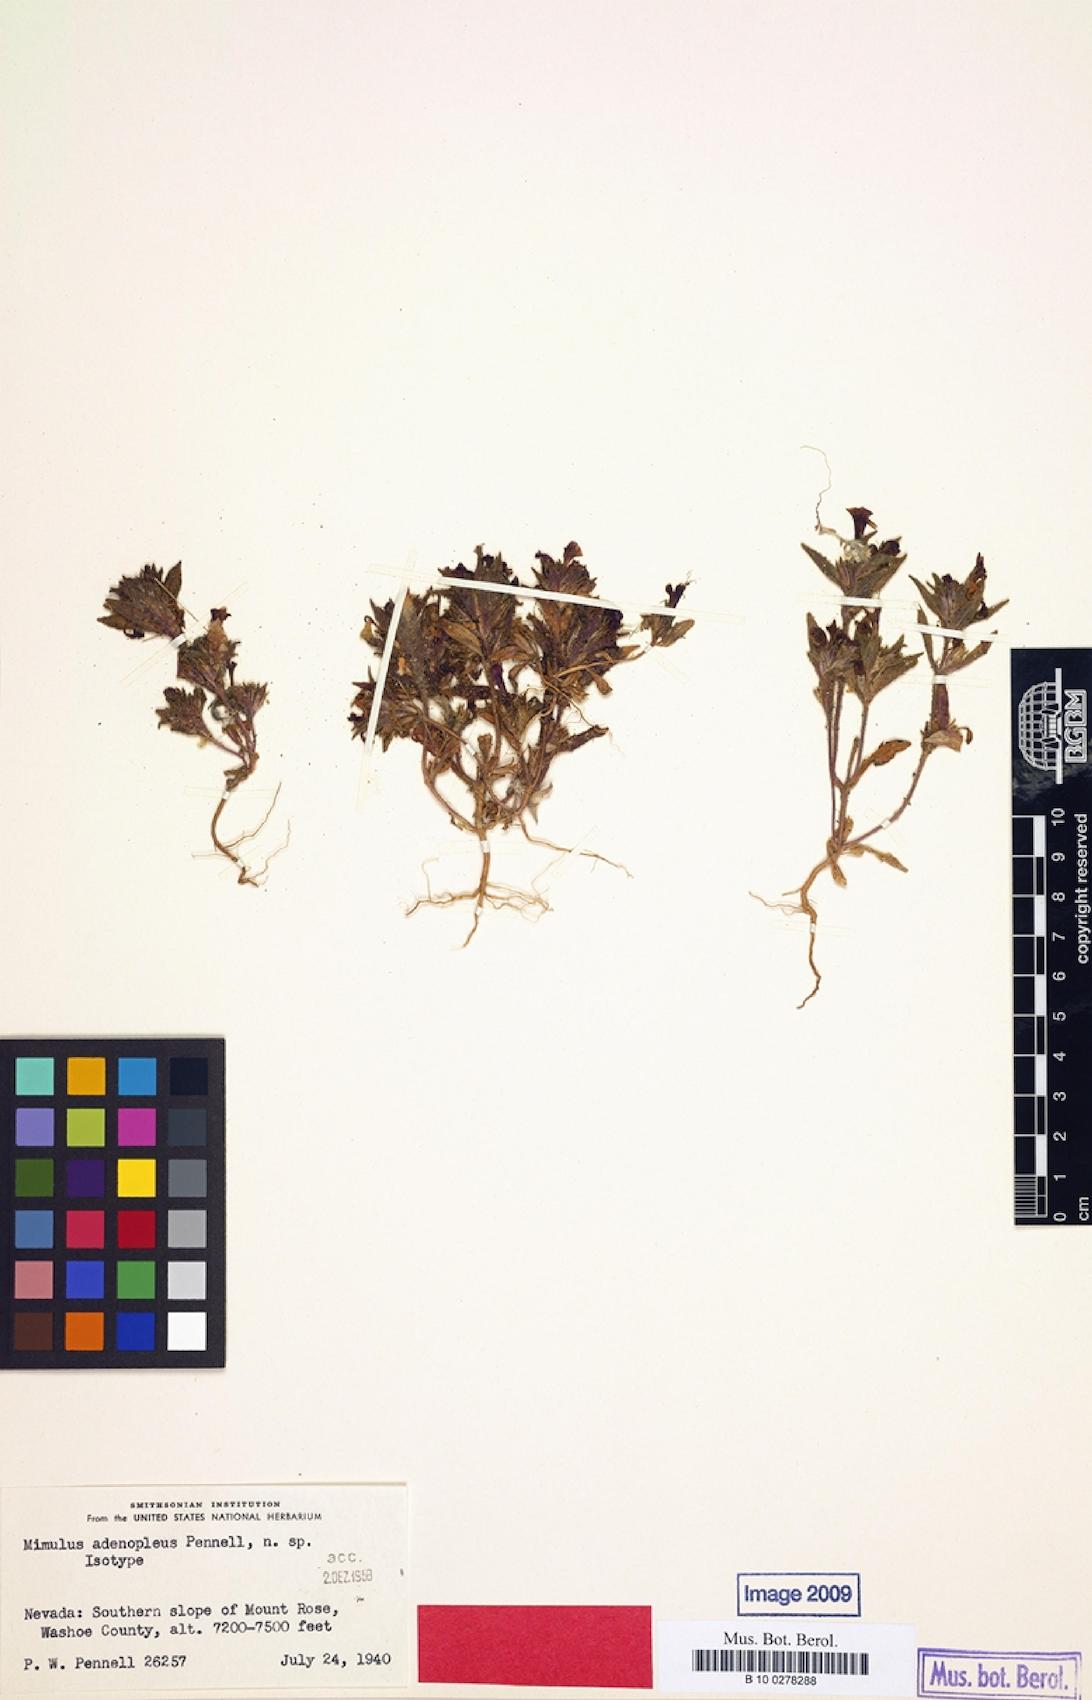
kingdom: Plantae
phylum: Tracheophyta
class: Magnoliopsida
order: Lamiales
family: Scrophulariaceae
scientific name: Scrophulariaceae
